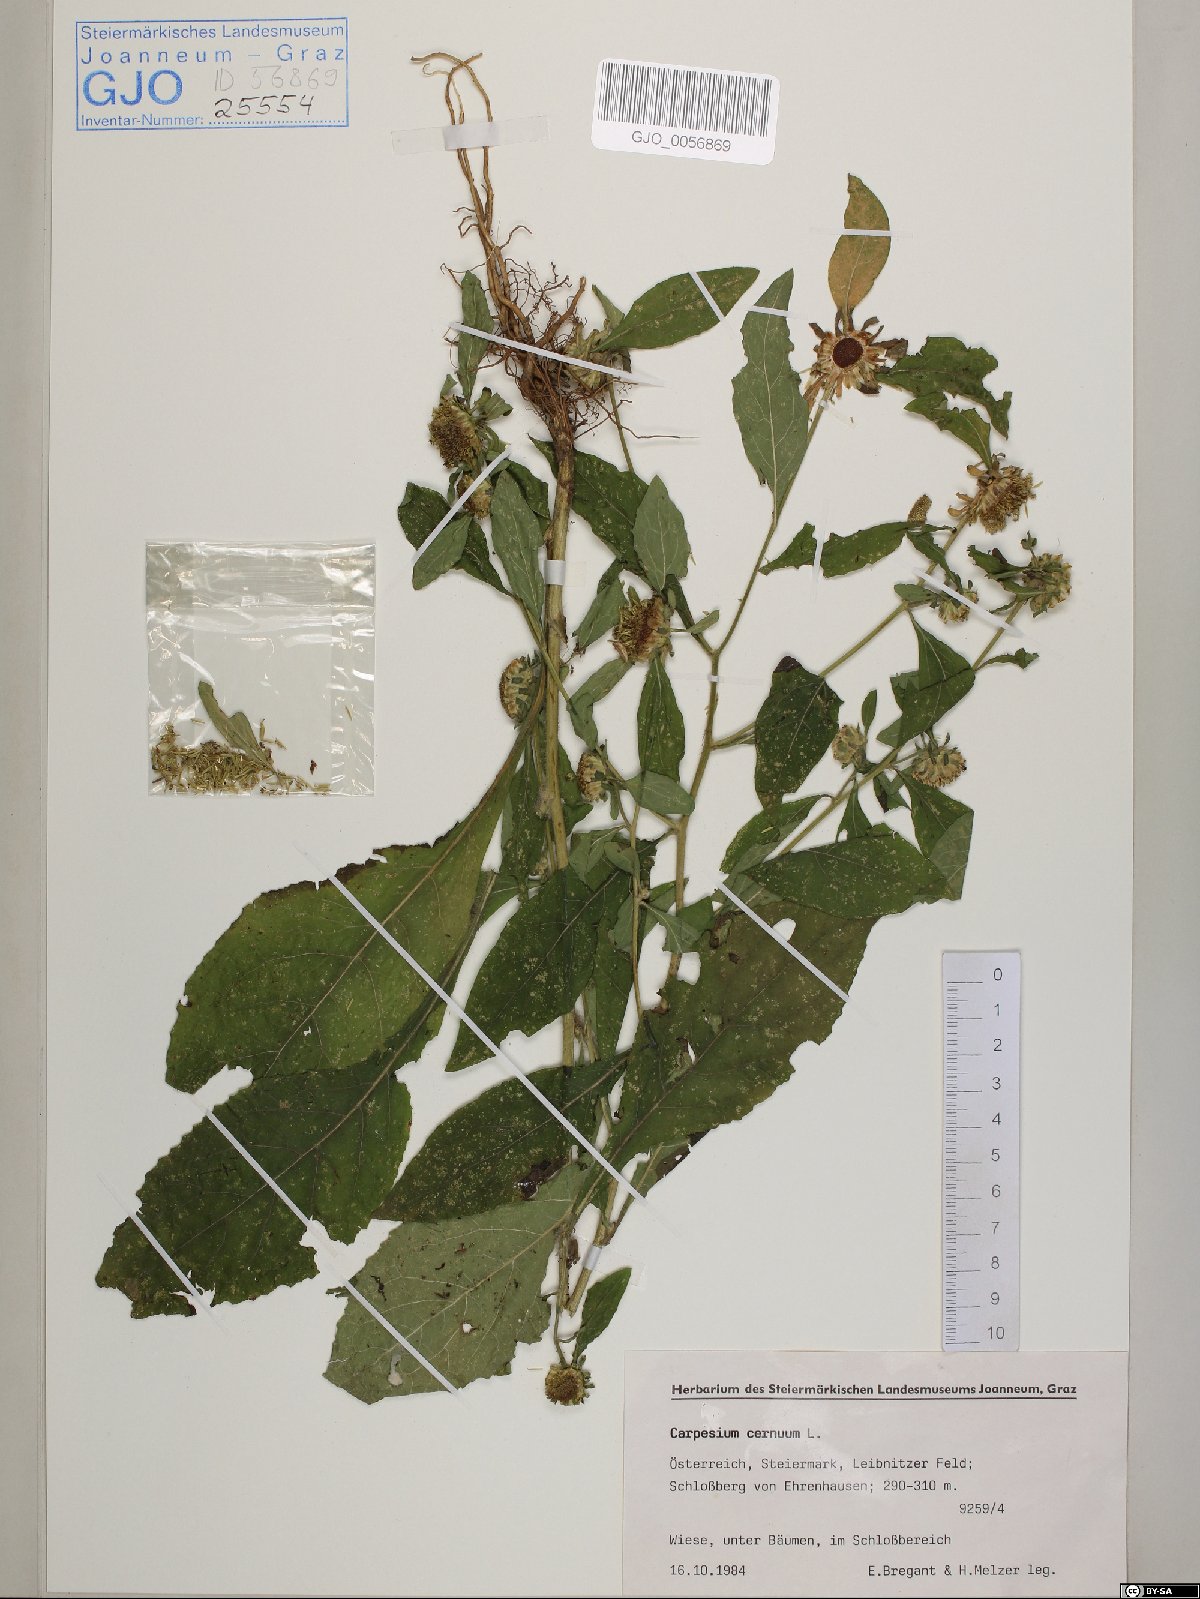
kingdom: Plantae
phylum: Tracheophyta
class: Magnoliopsida
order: Asterales
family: Asteraceae
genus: Carpesium
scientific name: Carpesium cernuum
